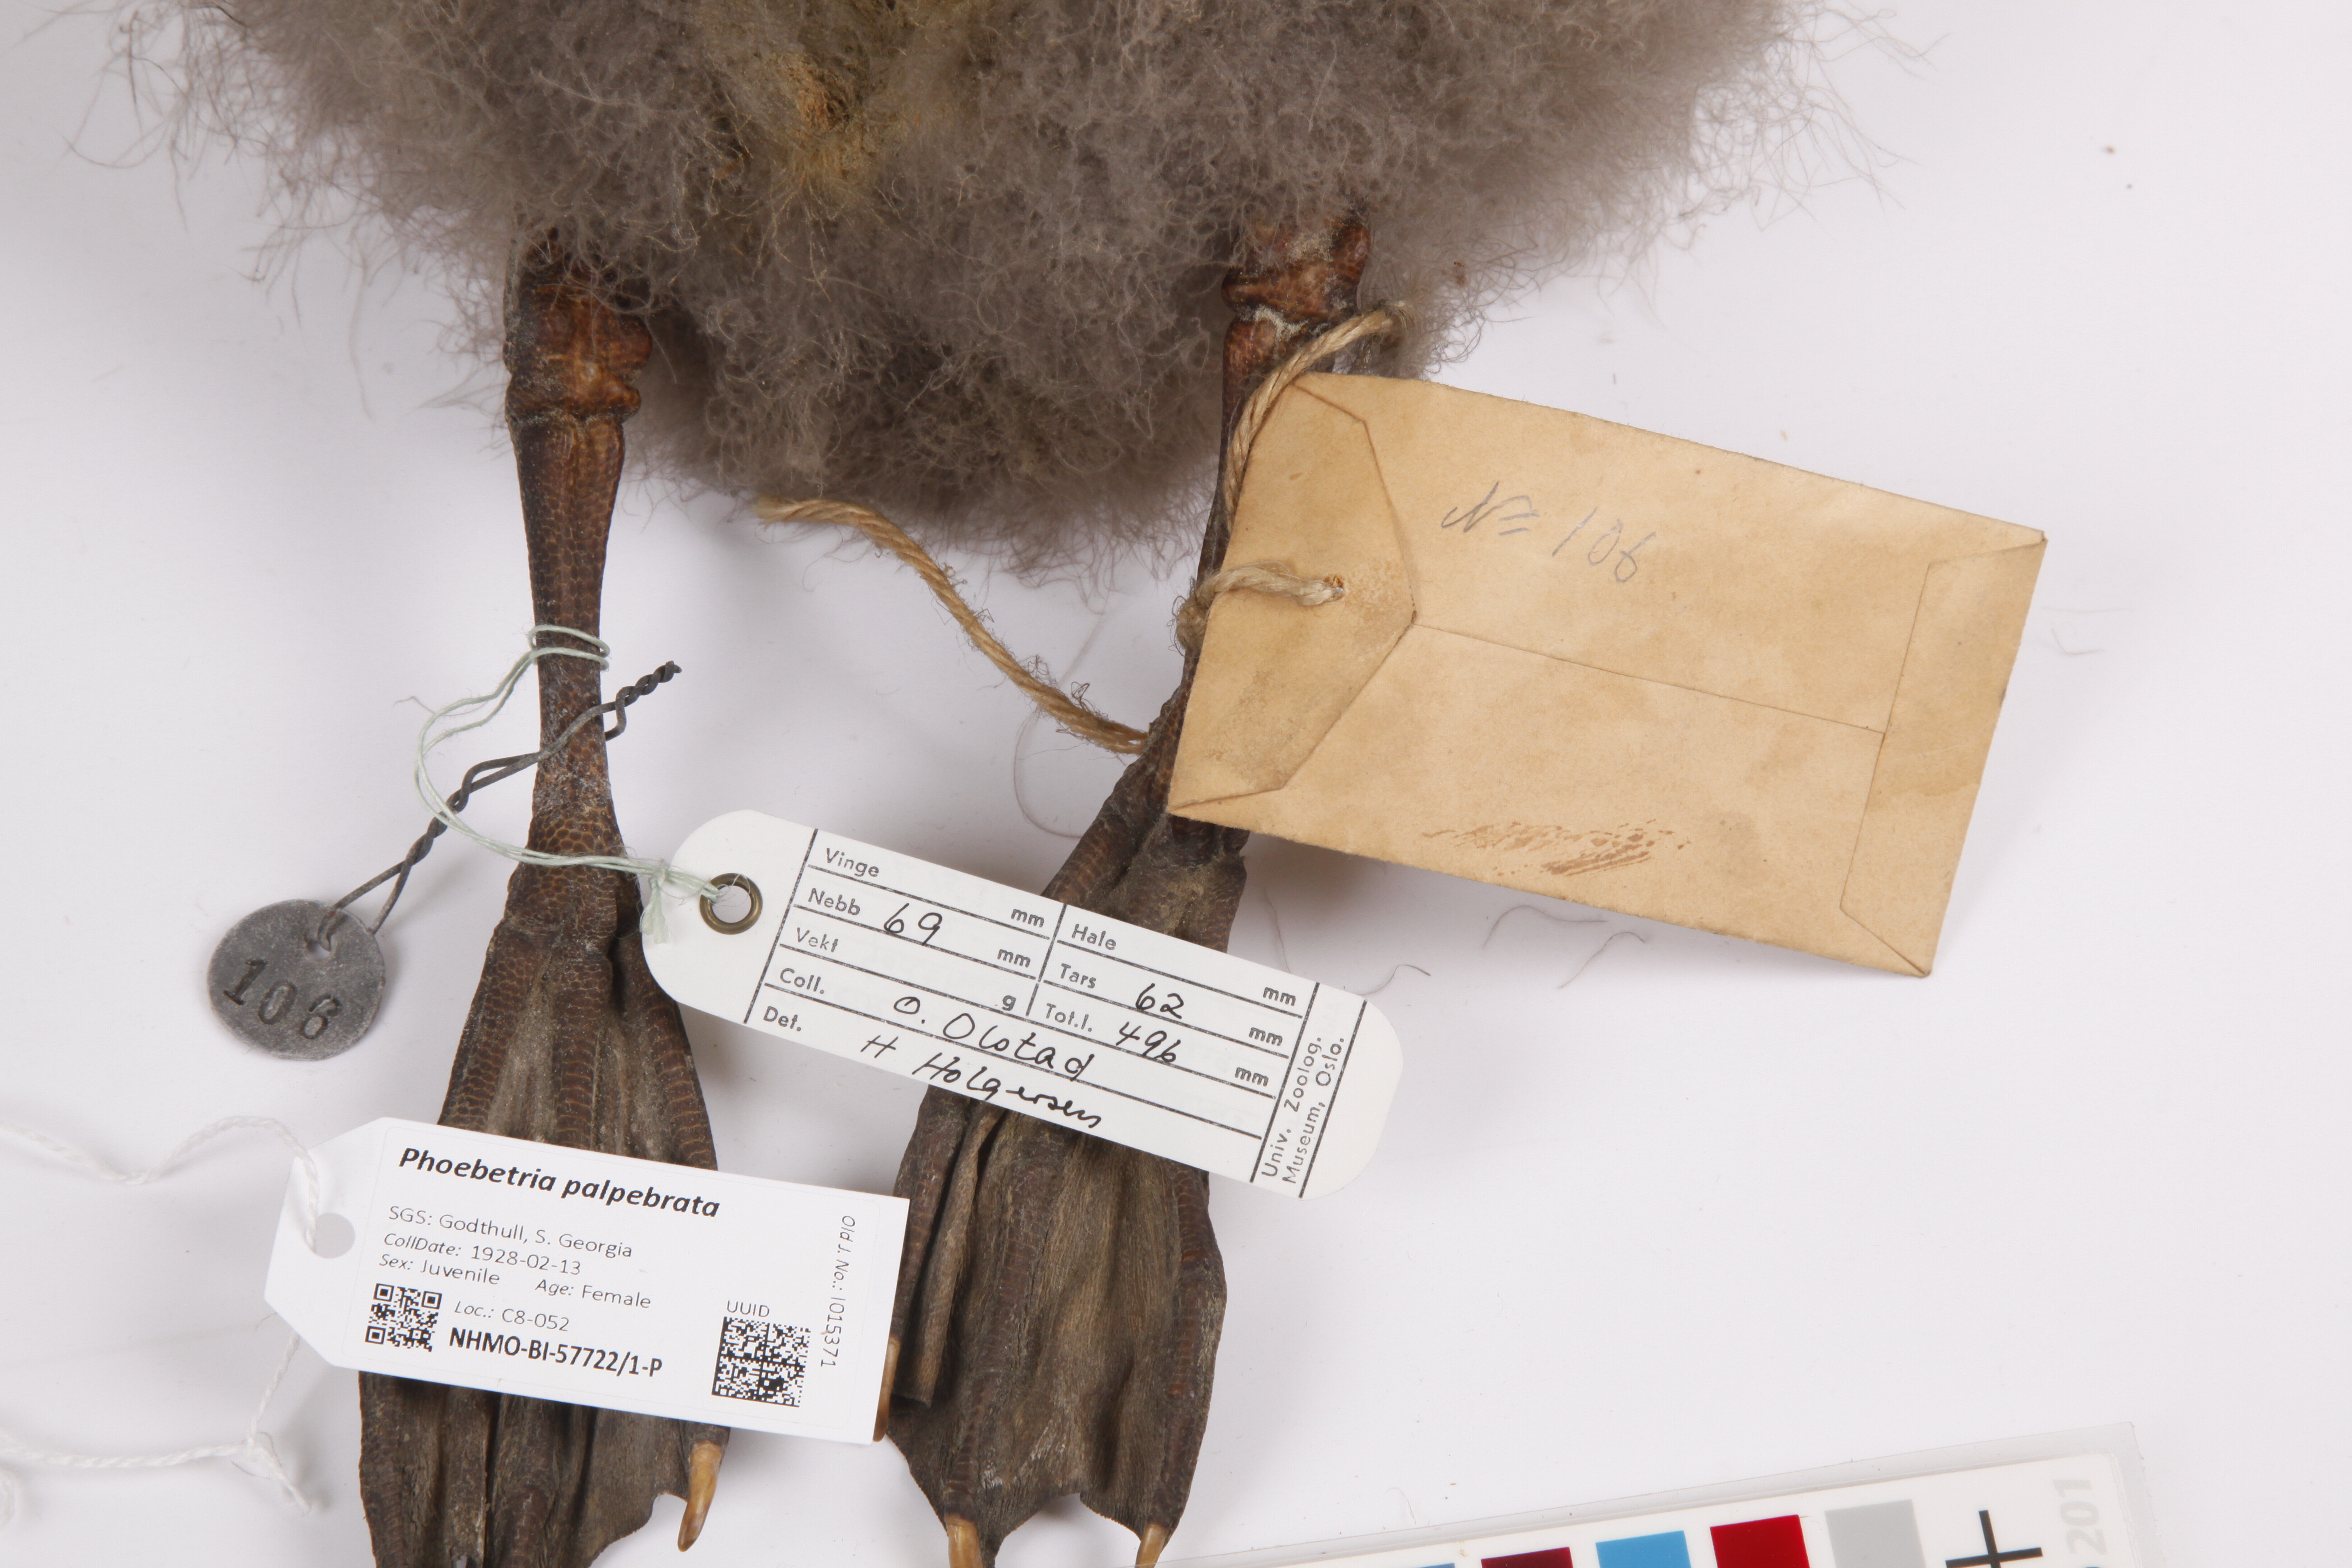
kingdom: Animalia
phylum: Chordata
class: Aves
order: Procellariiformes
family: Diomedeidae
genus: Phoebetria
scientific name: Phoebetria palpebrata
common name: Light-mantled albatross
